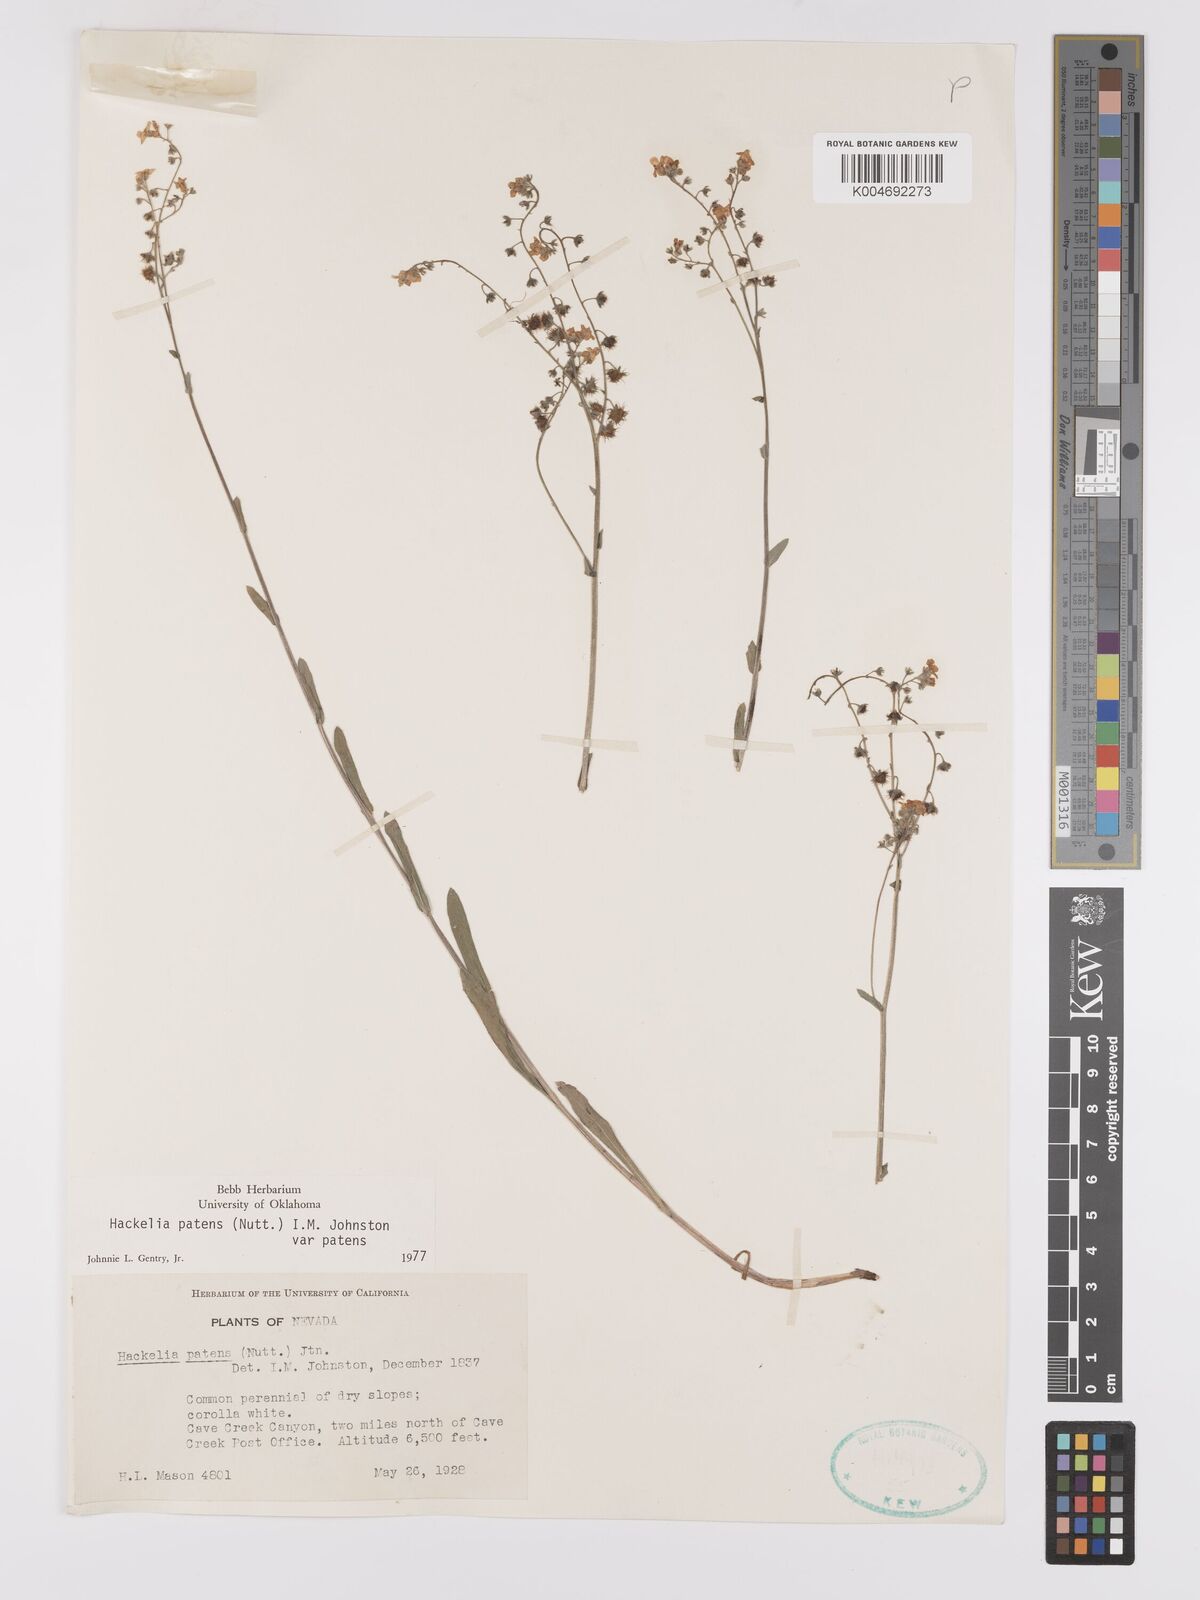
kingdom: Plantae
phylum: Tracheophyta
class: Magnoliopsida
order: Boraginales
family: Boraginaceae
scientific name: Boraginaceae
